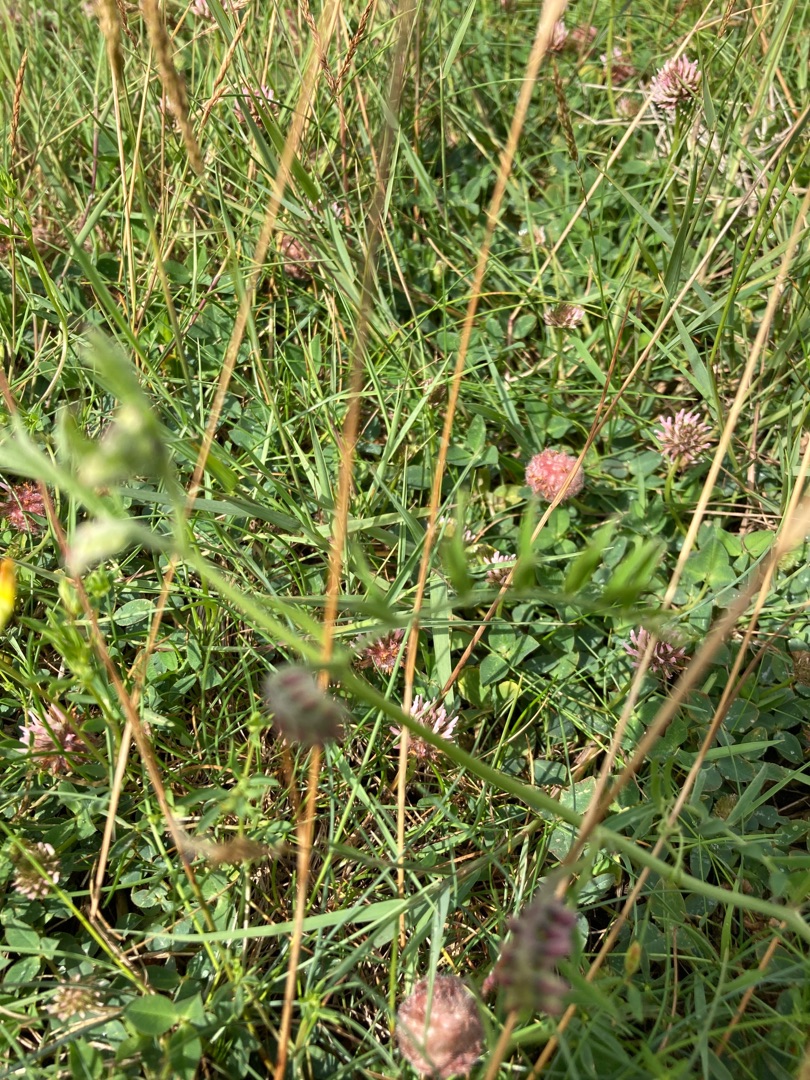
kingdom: Plantae
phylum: Tracheophyta
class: Magnoliopsida
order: Fabales
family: Fabaceae
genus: Vicia
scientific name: Vicia cracca
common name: Muse-vikke
